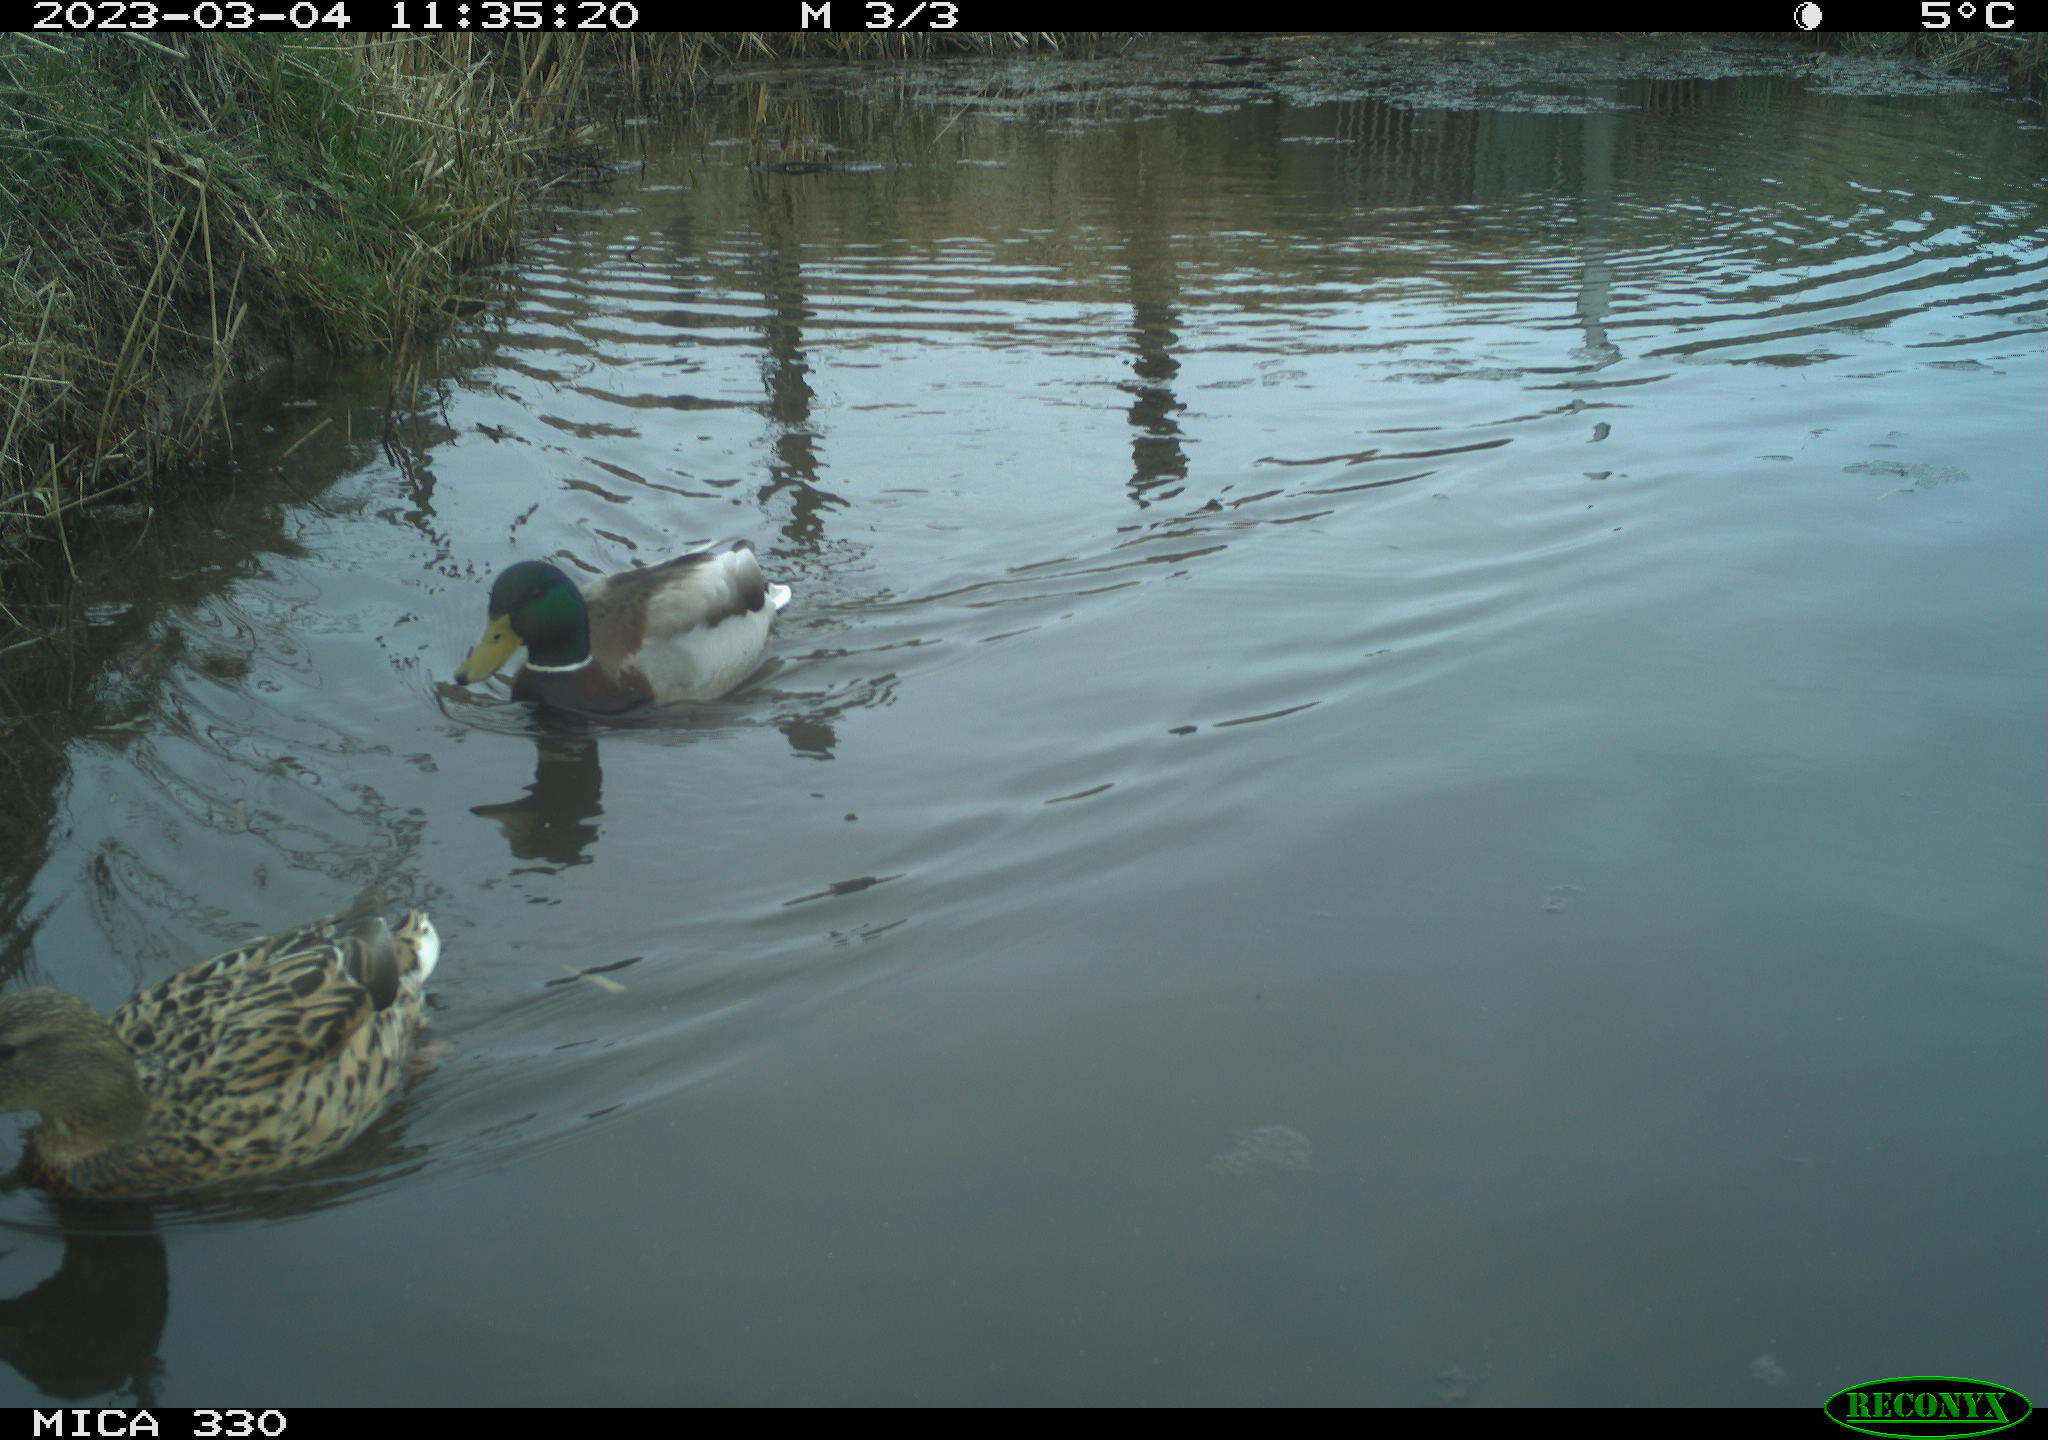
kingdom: Animalia
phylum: Chordata
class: Aves
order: Anseriformes
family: Anatidae
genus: Anas
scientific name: Anas
